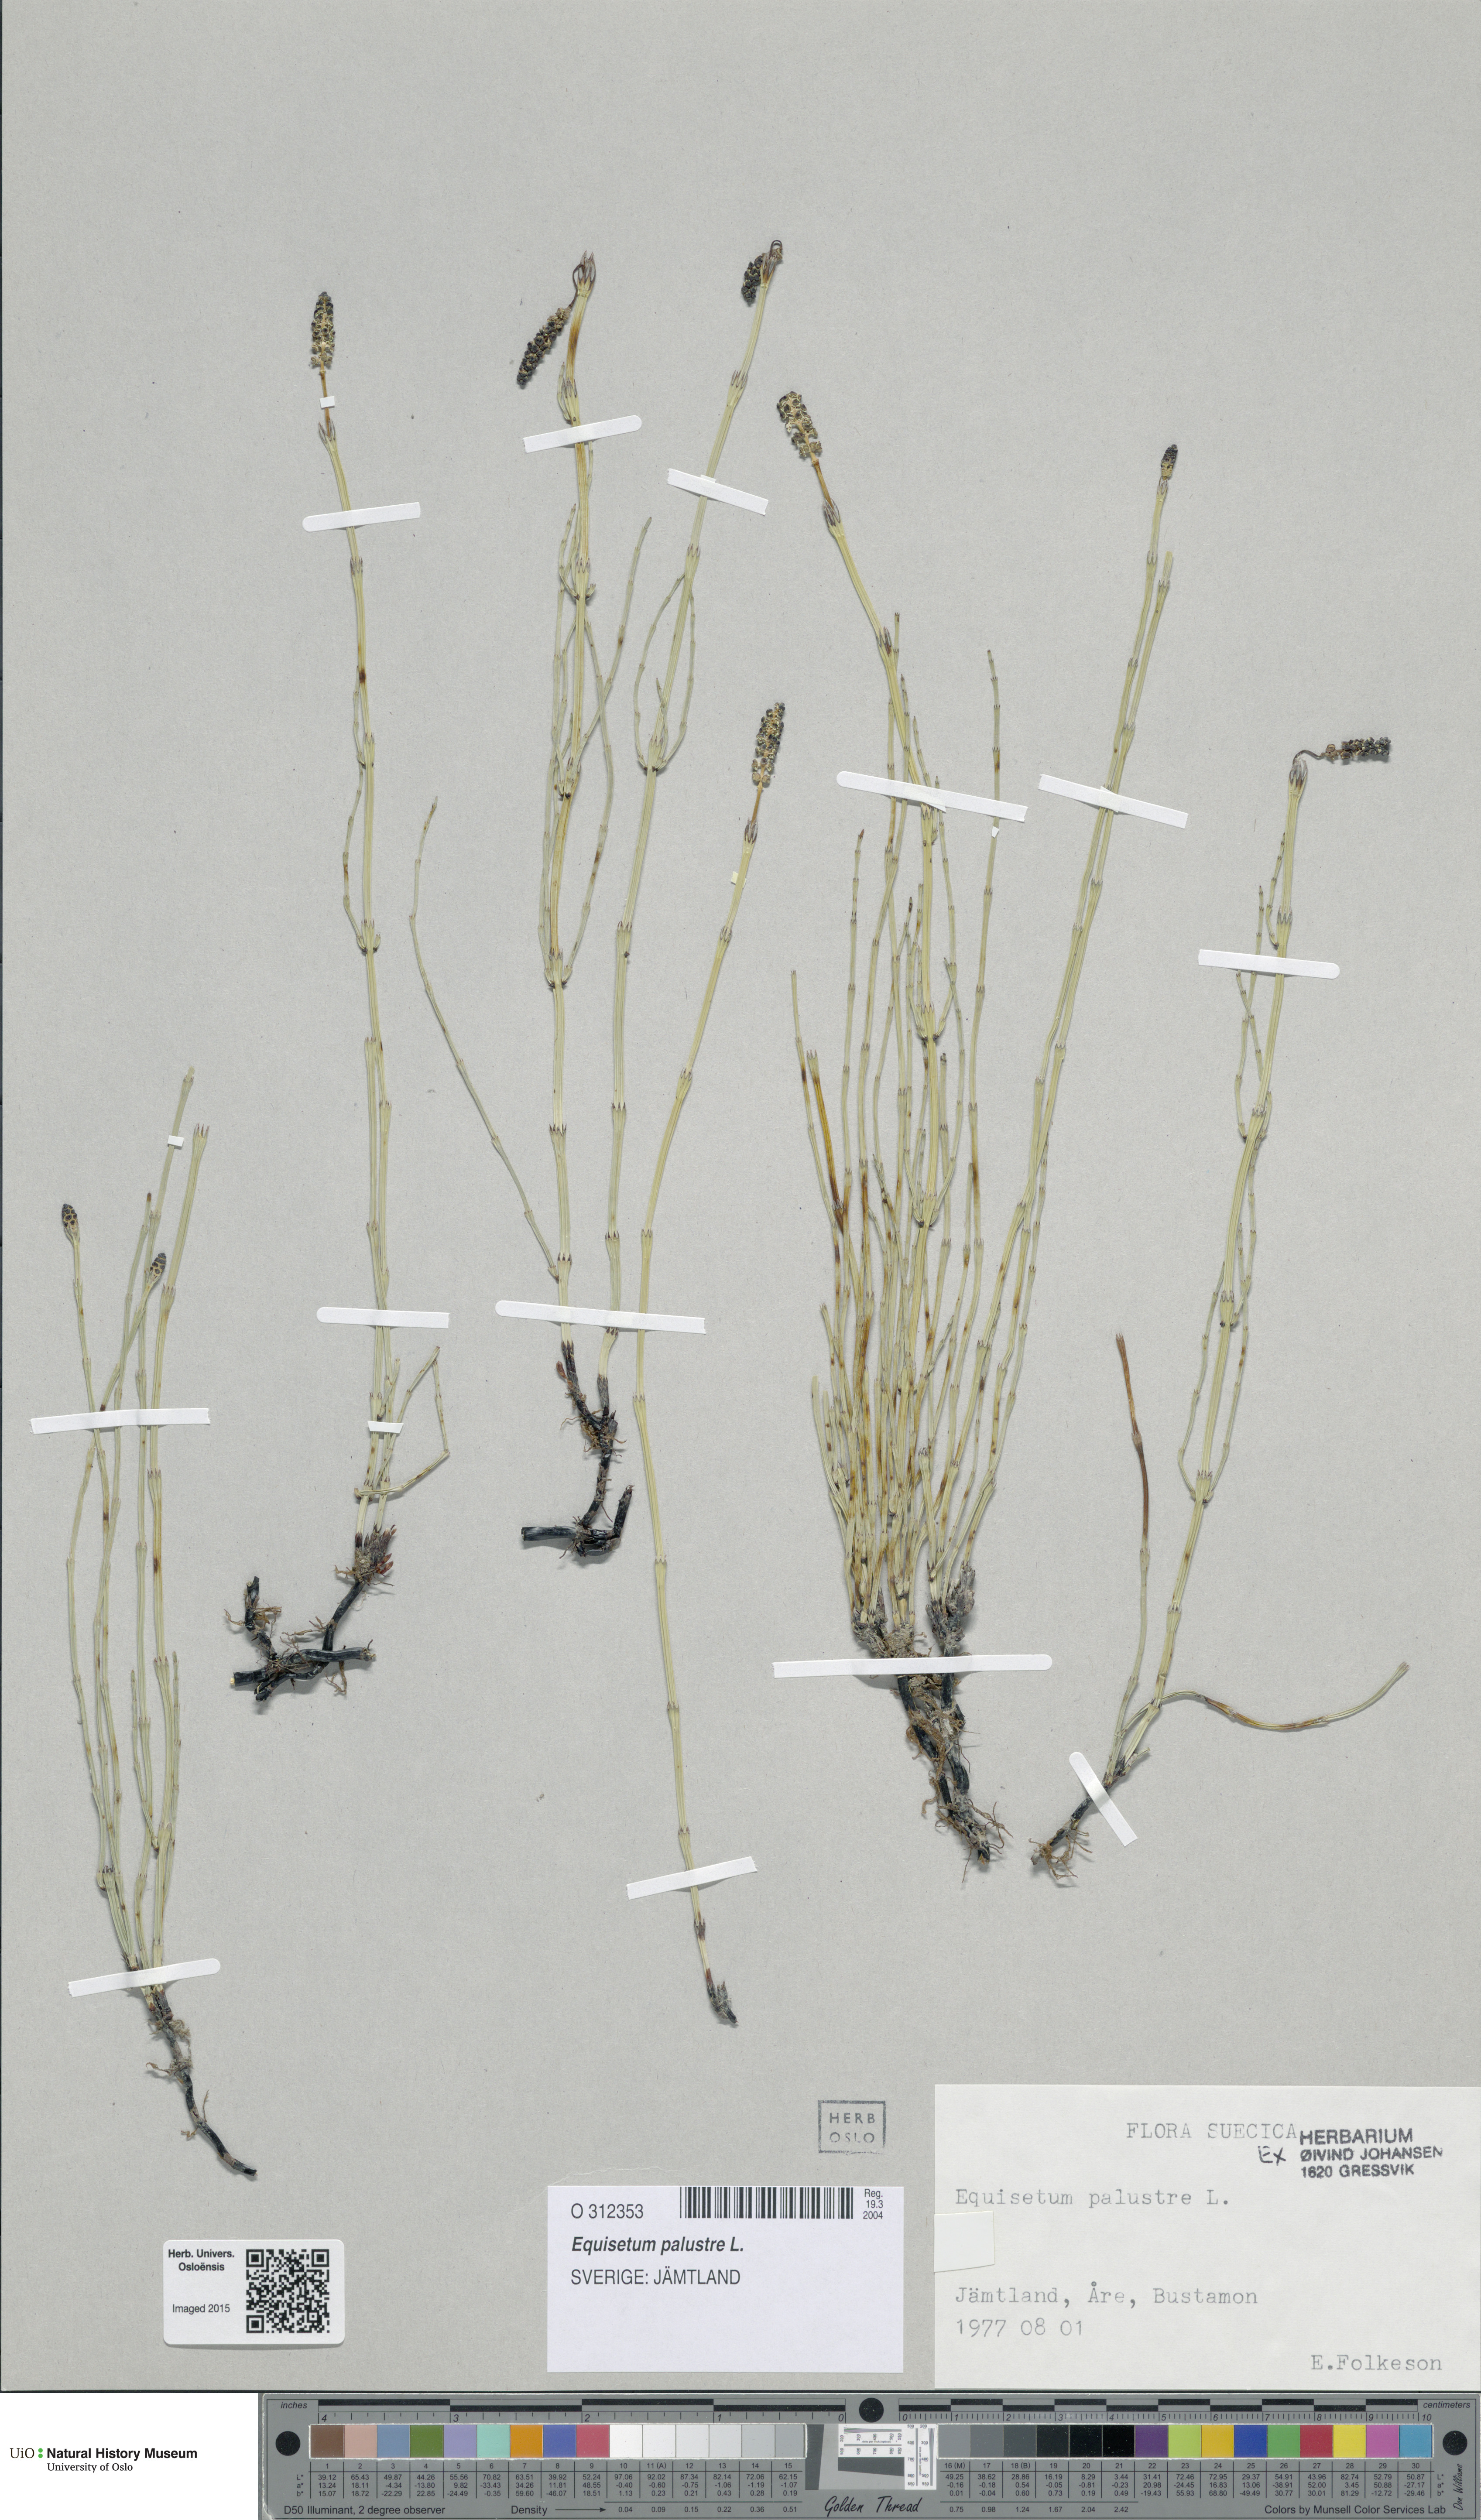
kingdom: Plantae
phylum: Tracheophyta
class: Polypodiopsida
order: Equisetales
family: Equisetaceae
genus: Equisetum
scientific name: Equisetum palustre
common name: Marsh horsetail
